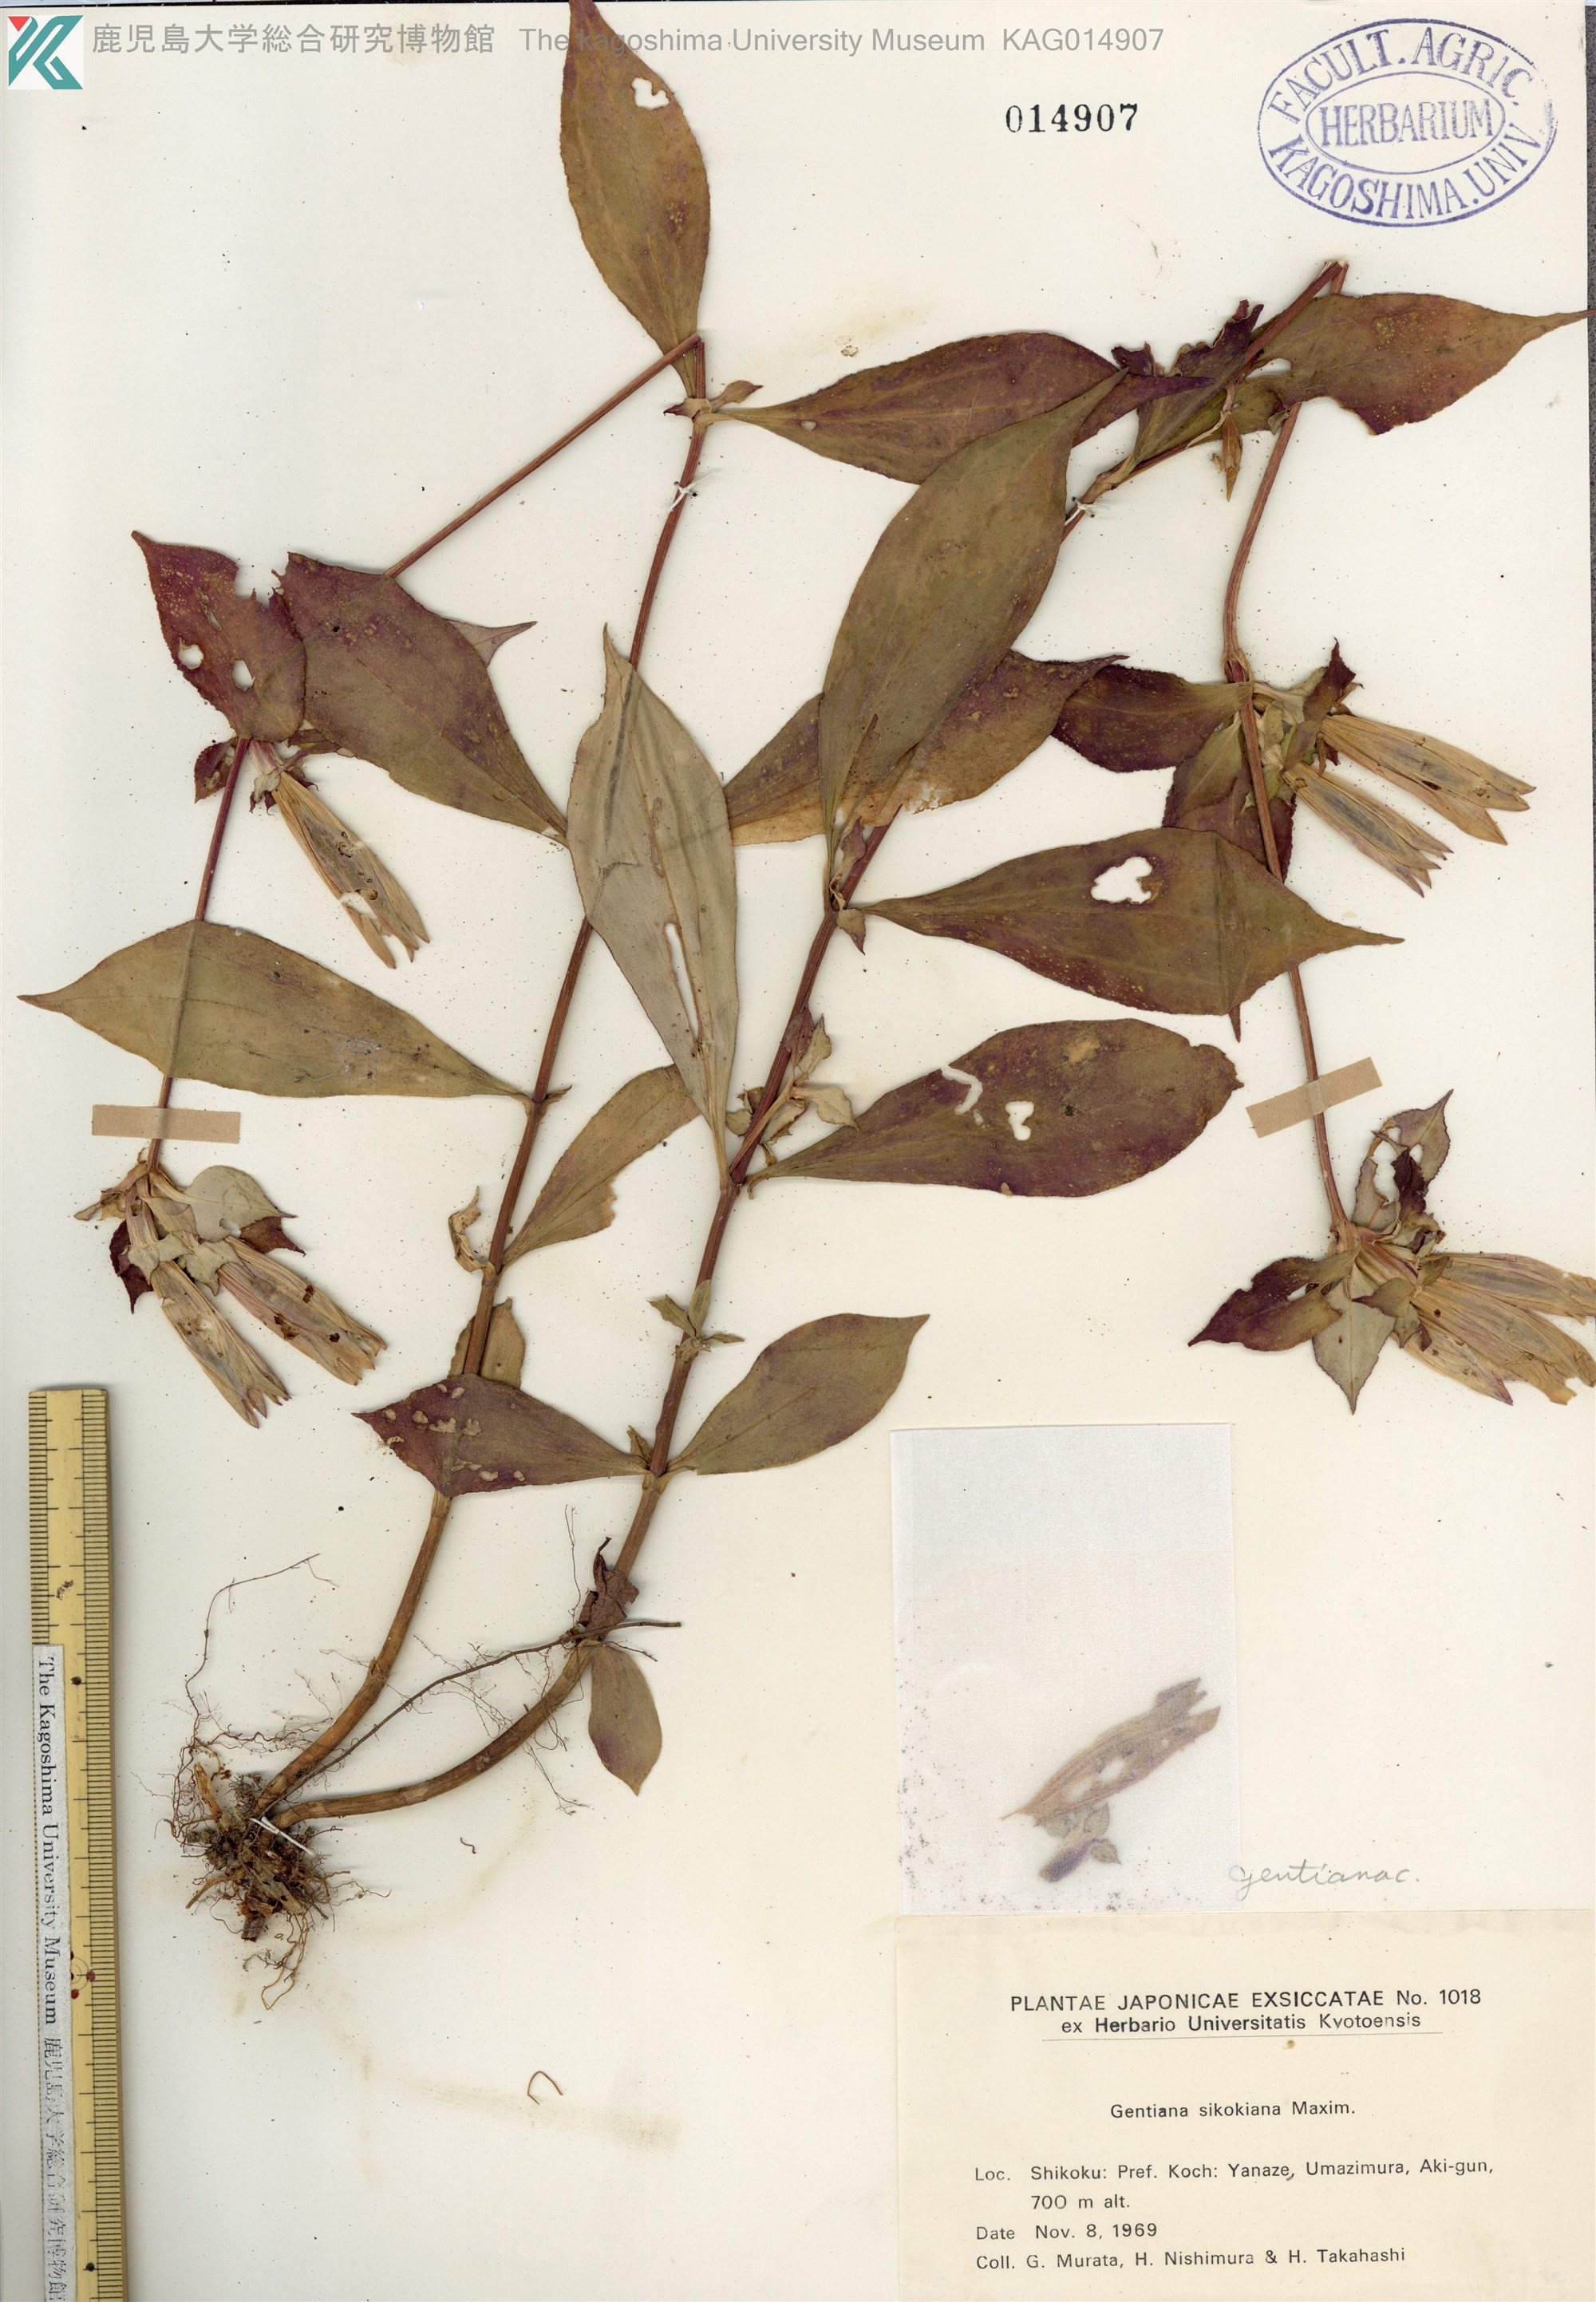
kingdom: Plantae
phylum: Tracheophyta
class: Magnoliopsida
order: Gentianales
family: Gentianaceae
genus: Gentiana
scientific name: Gentiana sikokiana
